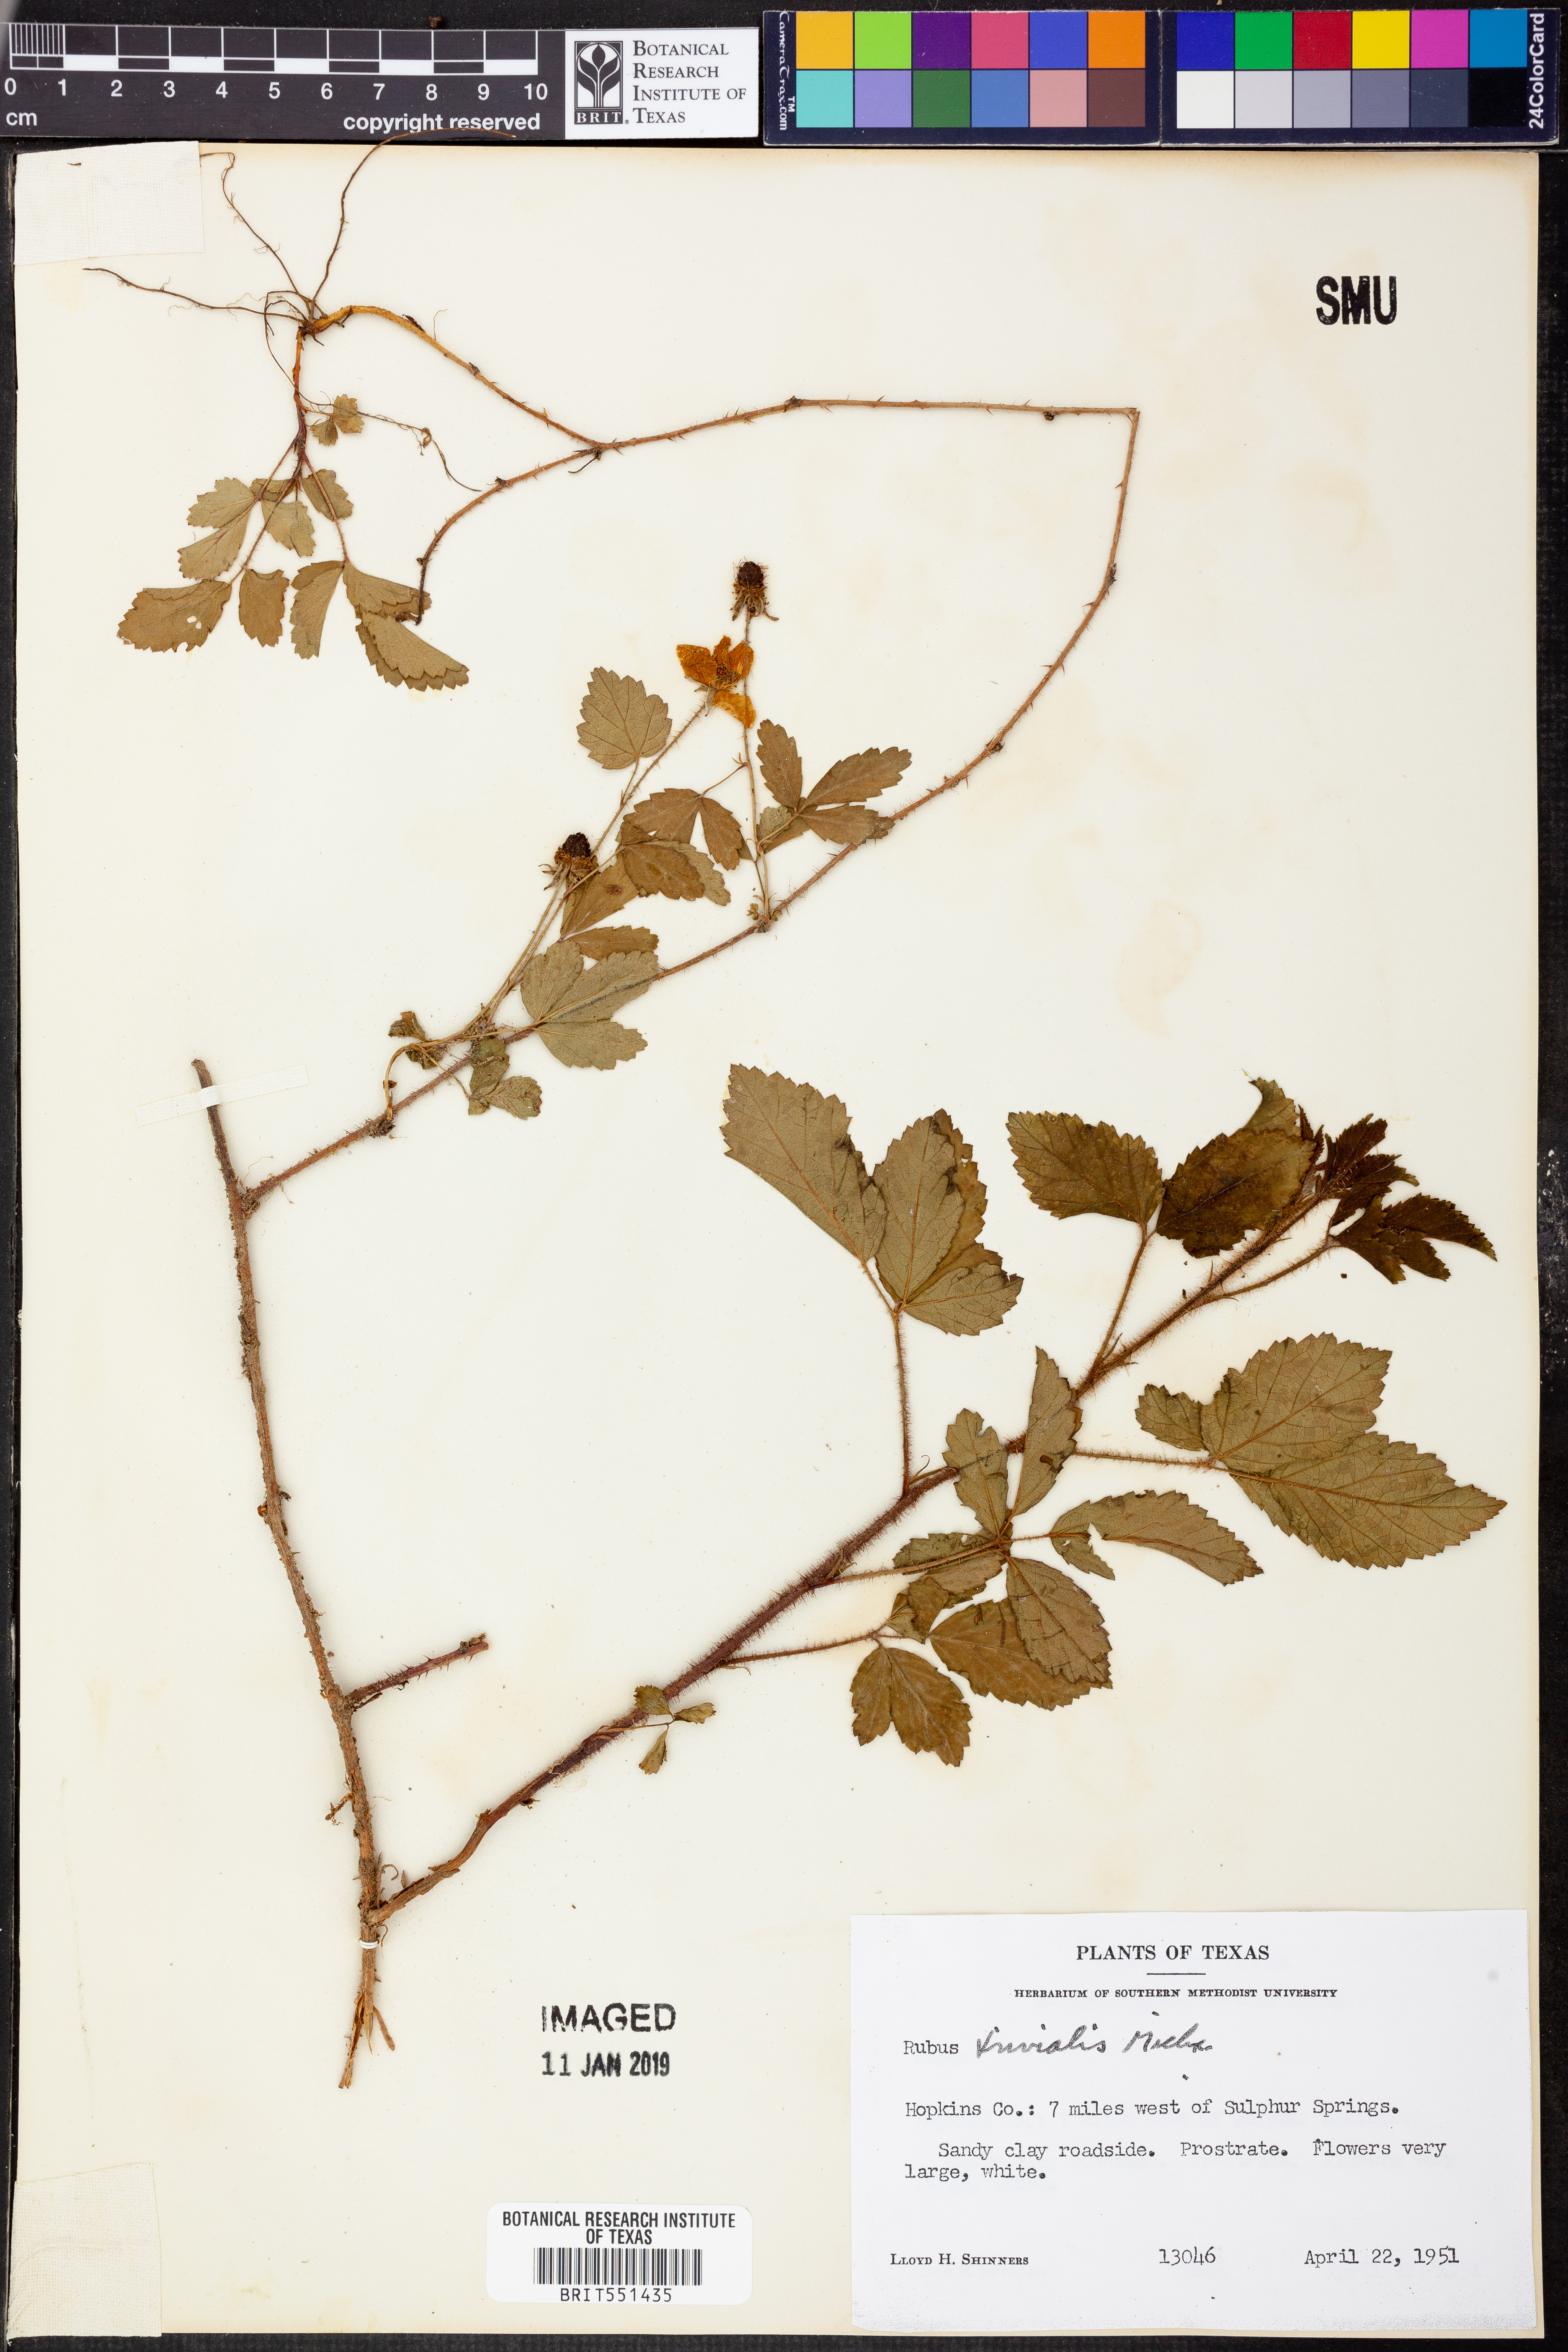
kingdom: Plantae
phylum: Tracheophyta
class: Magnoliopsida
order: Rosales
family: Rosaceae
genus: Rubus
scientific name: Rubus trivialis
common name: Southern dewberry
